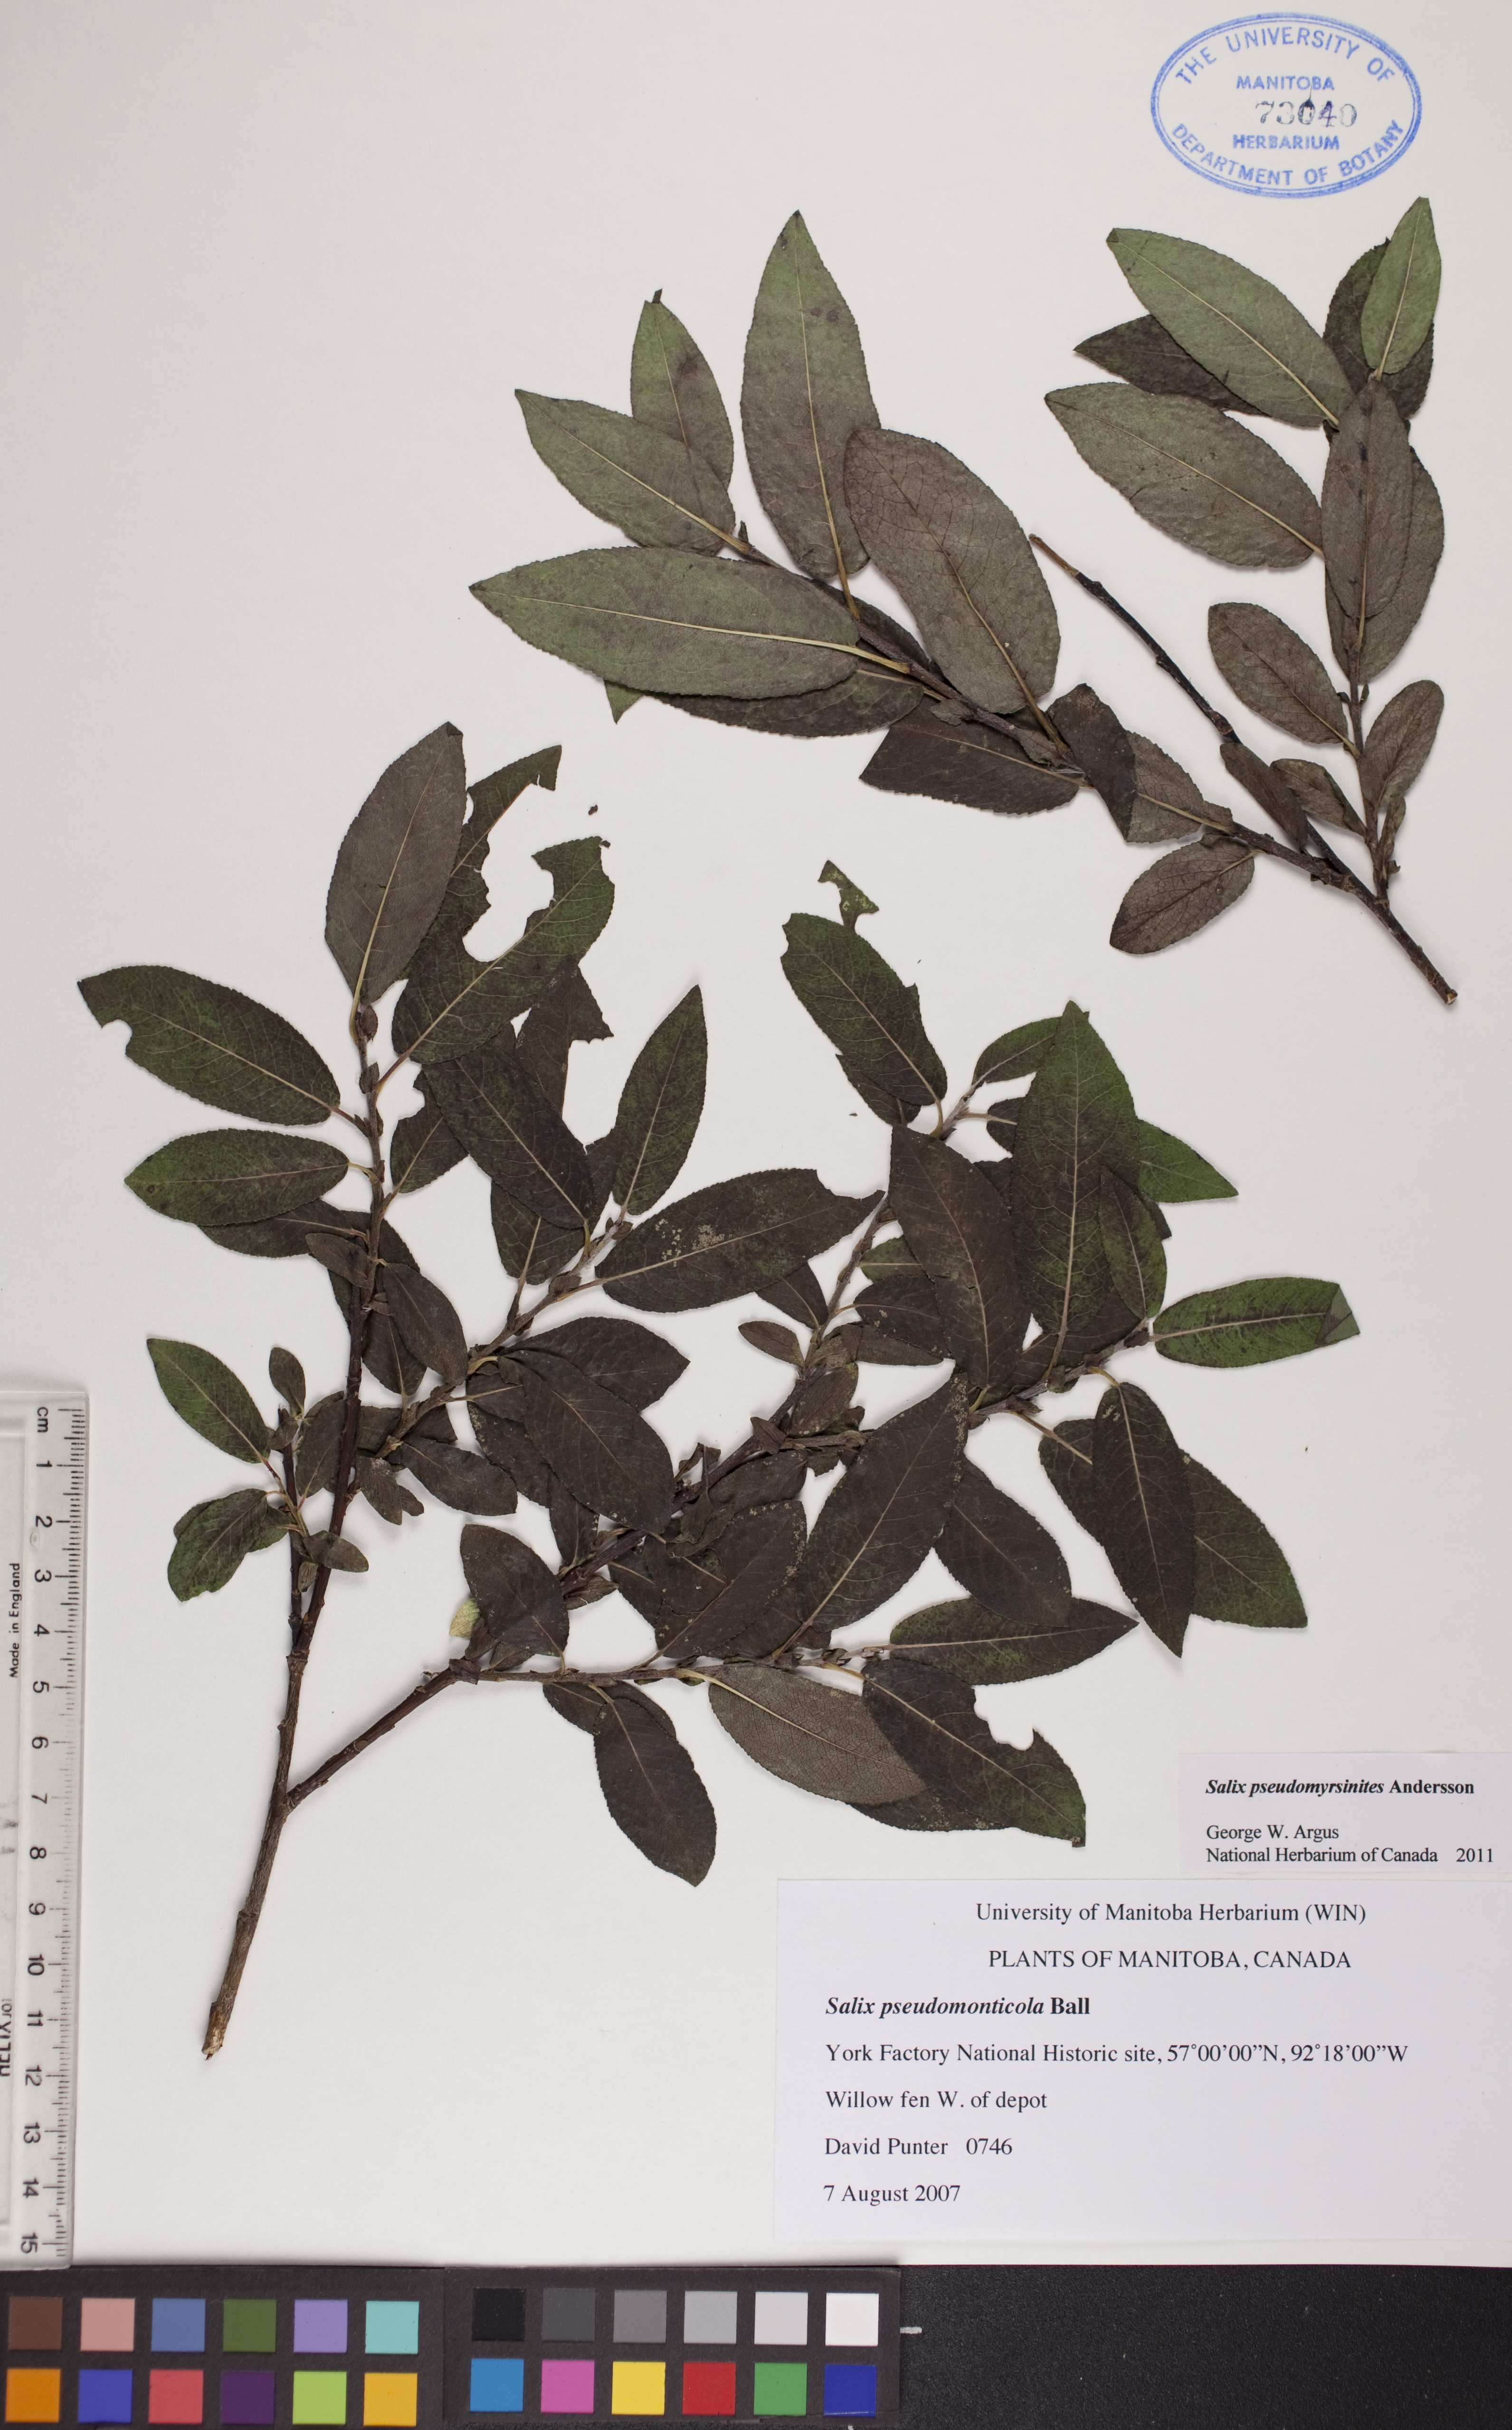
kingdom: Plantae
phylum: Tracheophyta
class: Magnoliopsida
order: Malpighiales
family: Salicaceae
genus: Salix
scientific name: Salix pseudomyrsinites
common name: Tall blueberry willow
